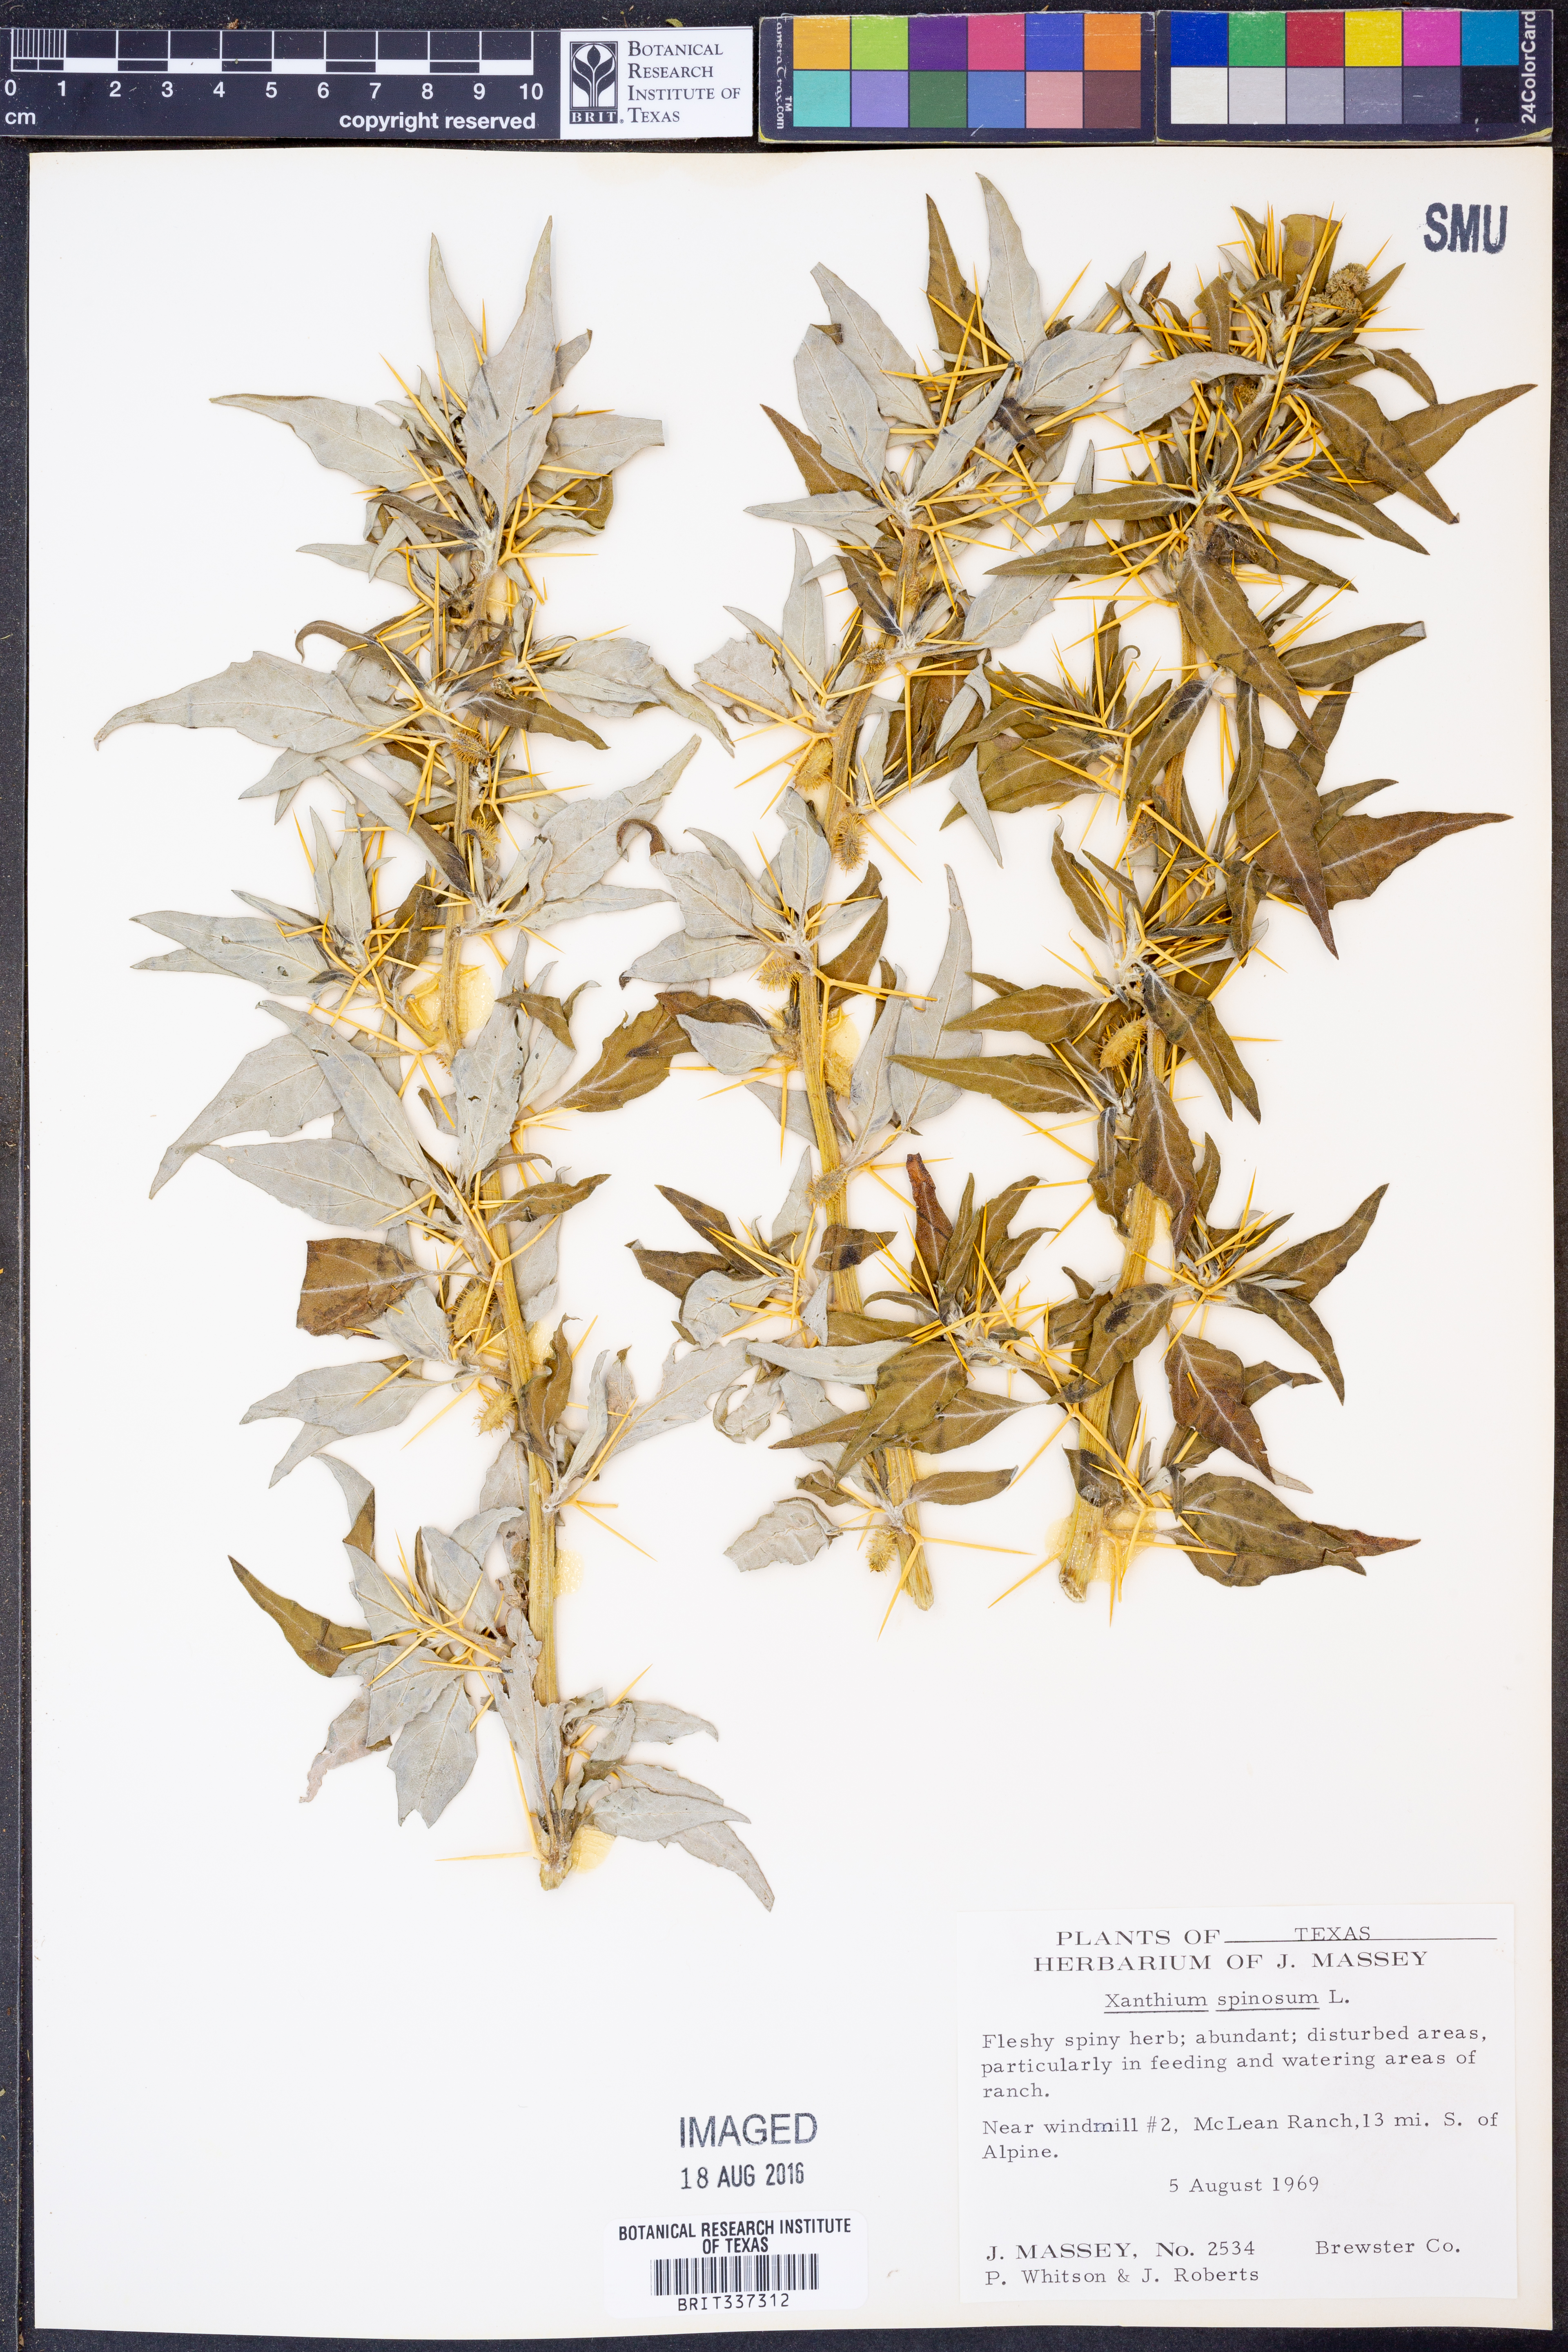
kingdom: Plantae
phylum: Tracheophyta
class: Magnoliopsida
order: Asterales
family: Asteraceae
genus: Xanthium
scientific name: Xanthium spinosum
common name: Spiny cocklebur
